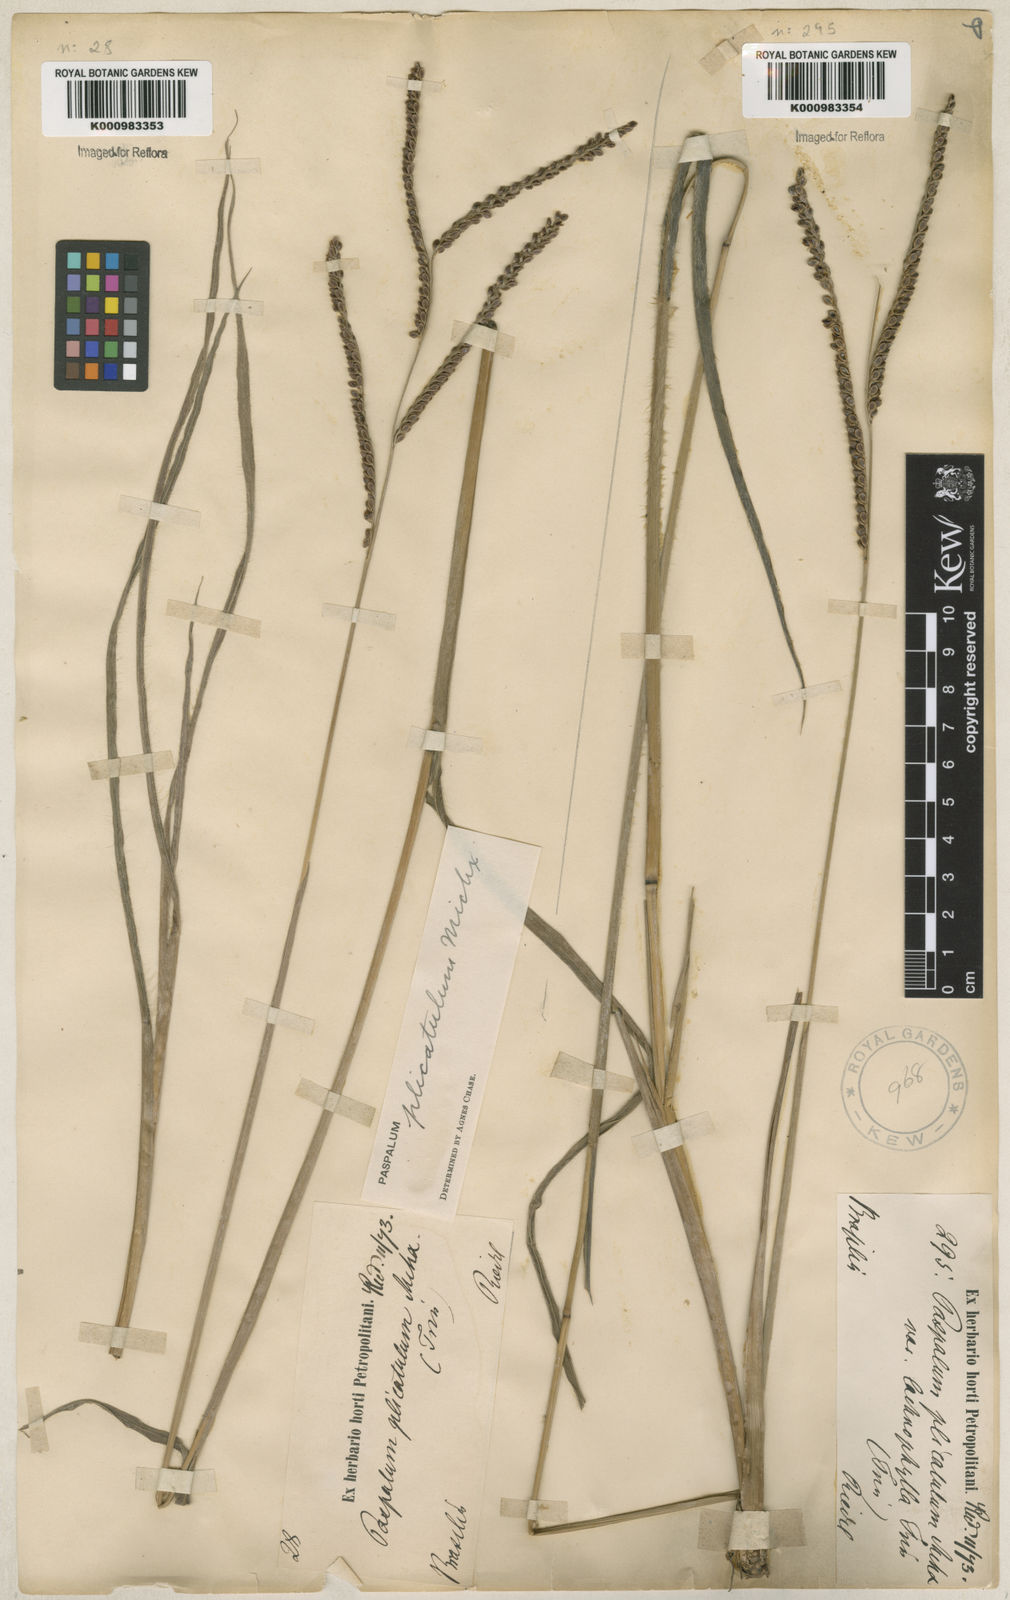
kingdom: Plantae
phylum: Tracheophyta
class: Liliopsida
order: Poales
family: Poaceae
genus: Paspalum
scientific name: Paspalum plicatulum
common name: Top paspalum
